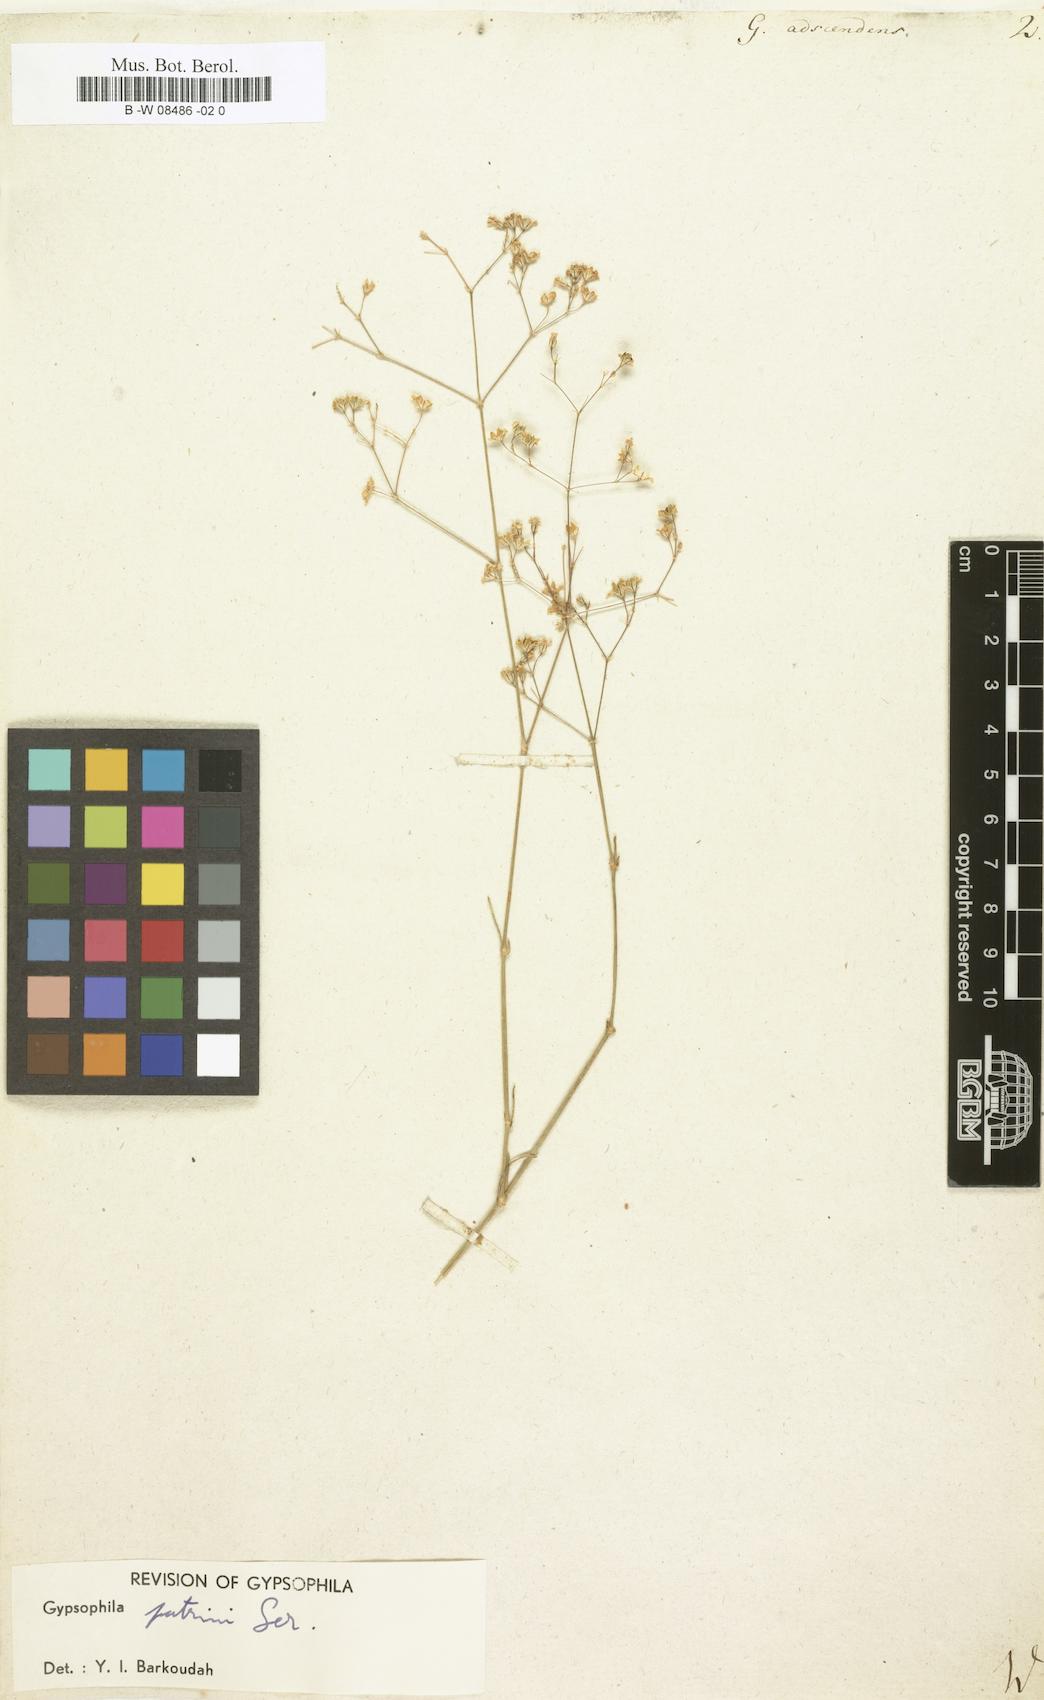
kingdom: Plantae
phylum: Tracheophyta
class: Magnoliopsida
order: Caryophyllales
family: Caryophyllaceae
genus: Gypsophila
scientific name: Gypsophila repens
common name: Creeping baby's-breath
